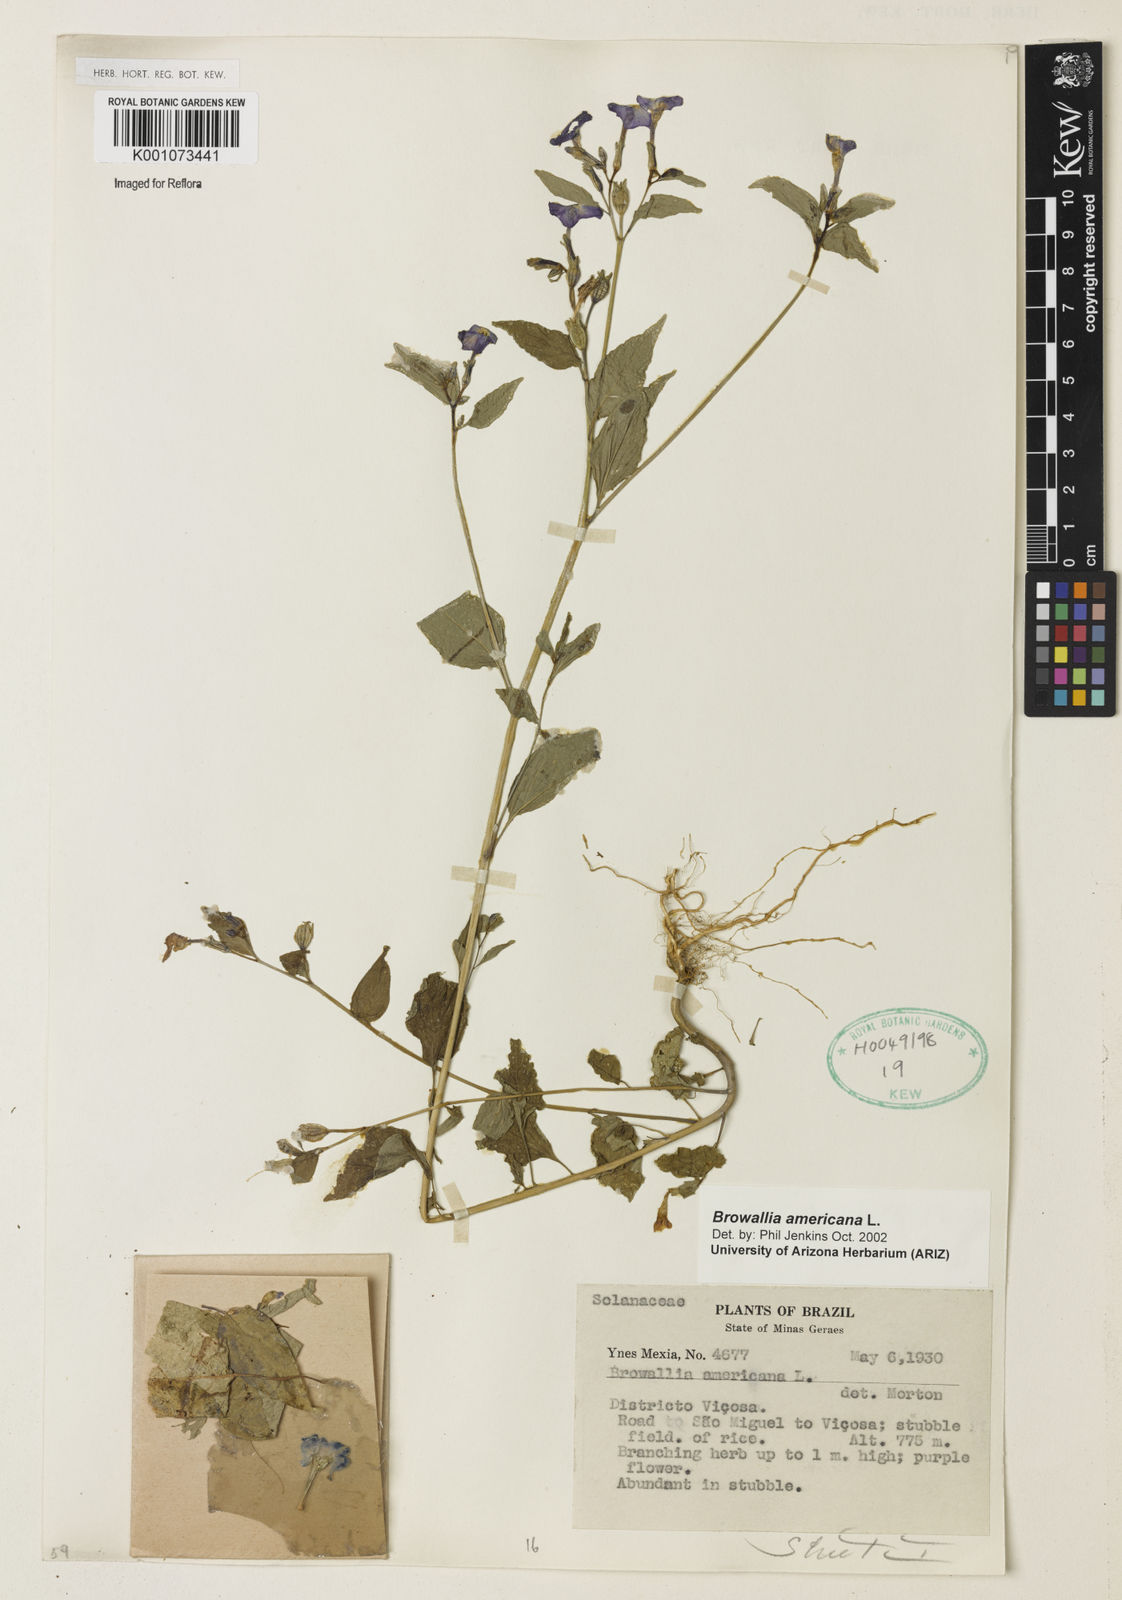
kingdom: Plantae
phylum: Tracheophyta
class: Magnoliopsida
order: Solanales
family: Solanaceae
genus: Browallia
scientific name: Browallia americana
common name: Jamaican forget-me-not
